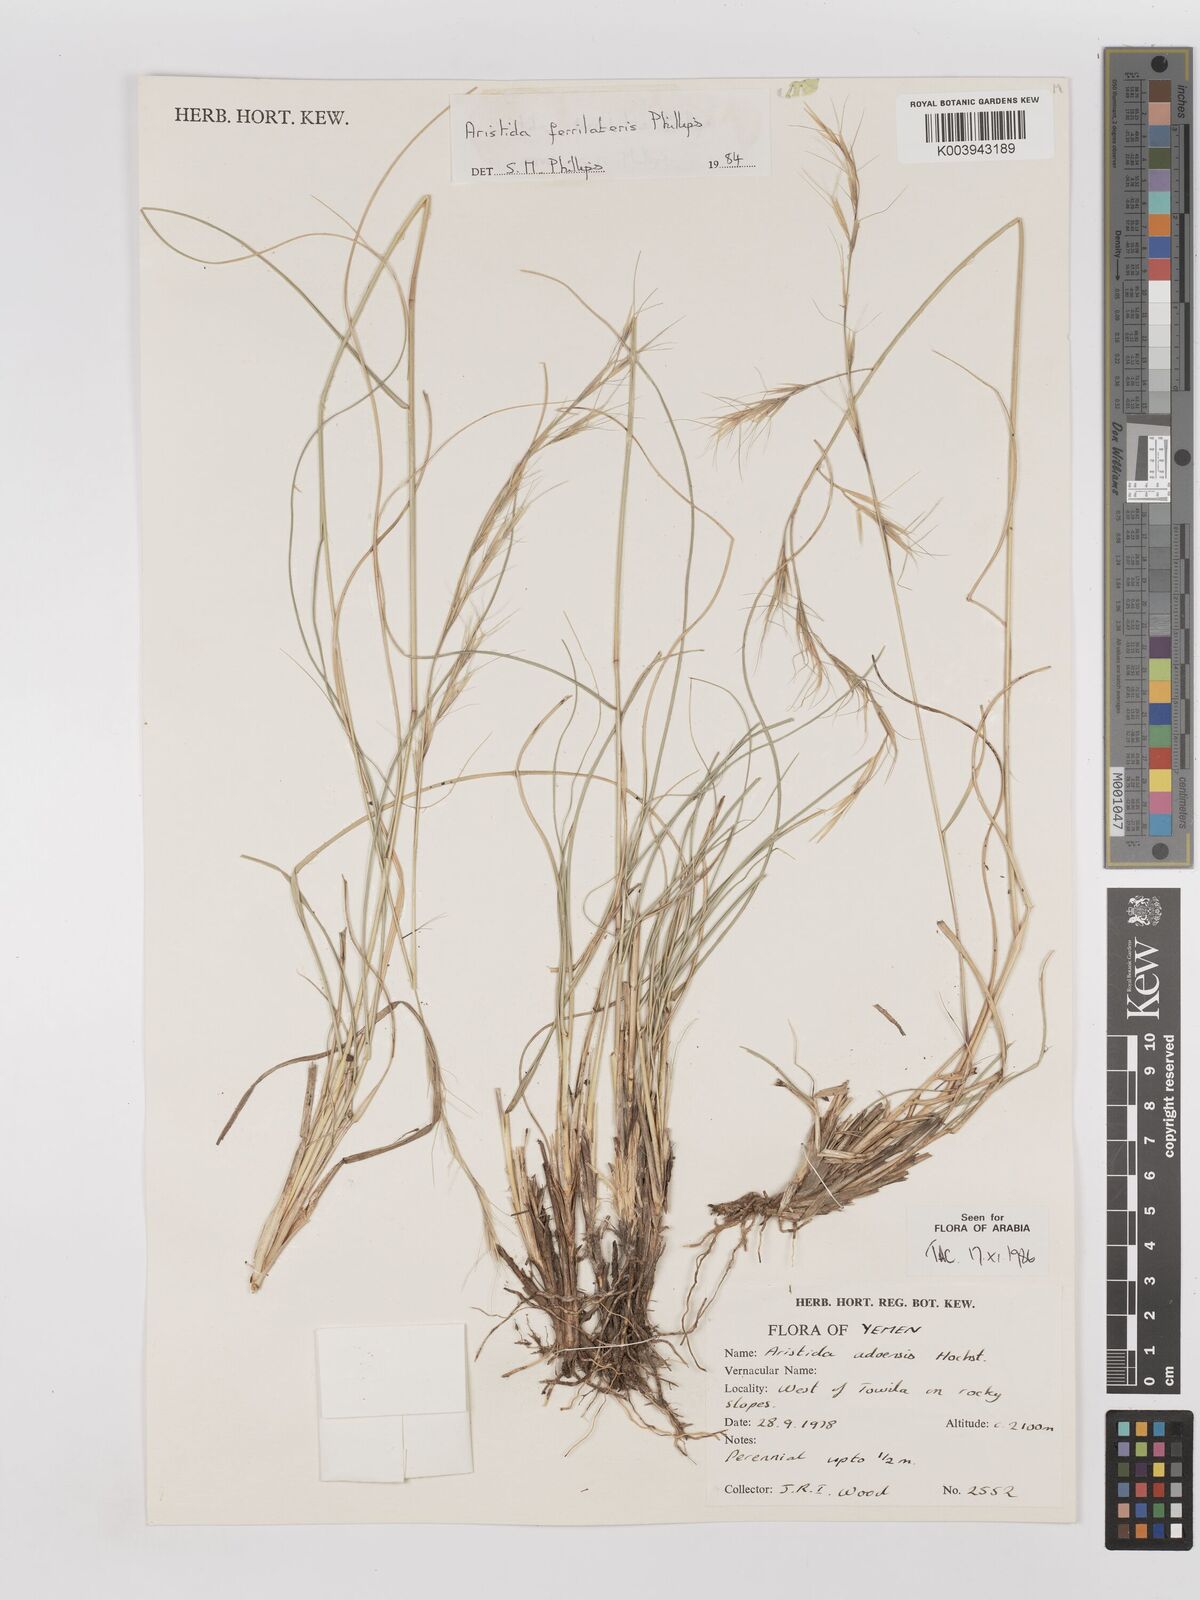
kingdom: Plantae
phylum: Tracheophyta
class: Liliopsida
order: Poales
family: Poaceae
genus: Aristida
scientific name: Aristida ferrilateris
